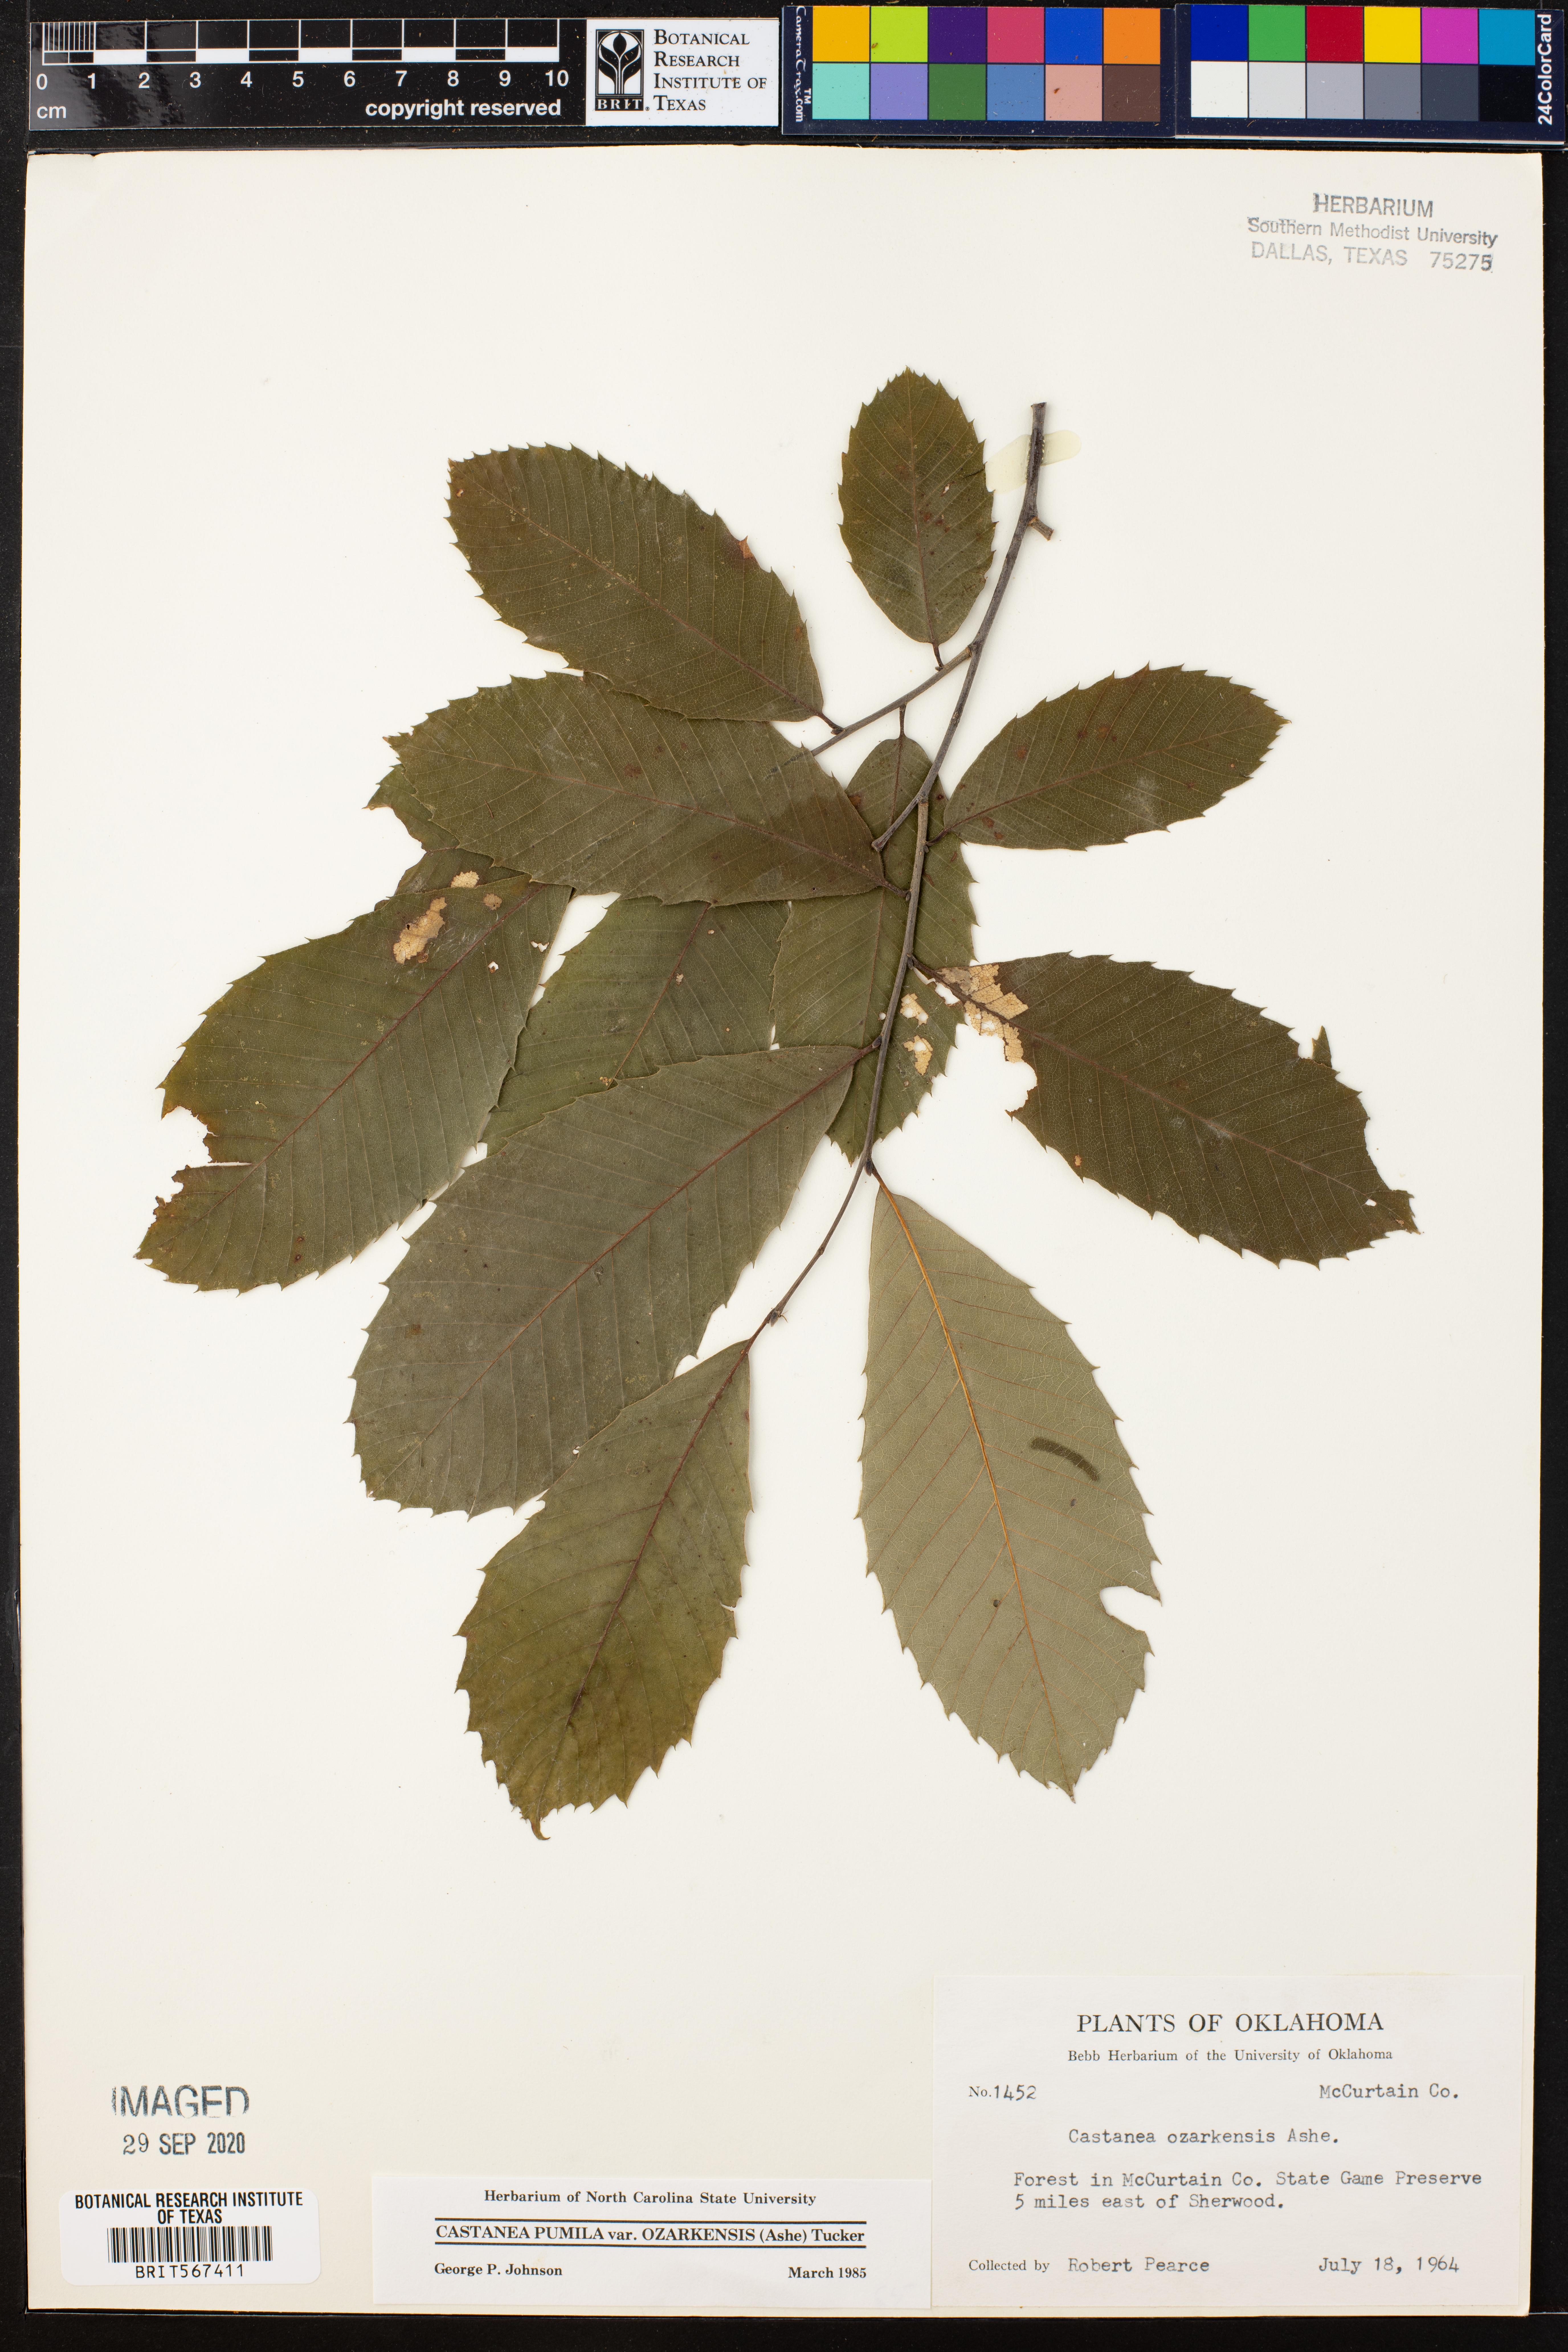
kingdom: Plantae
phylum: Tracheophyta
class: Magnoliopsida
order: Fagales
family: Fagaceae
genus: Castanea
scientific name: Castanea ozarkensis
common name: Ozark chinkapin
